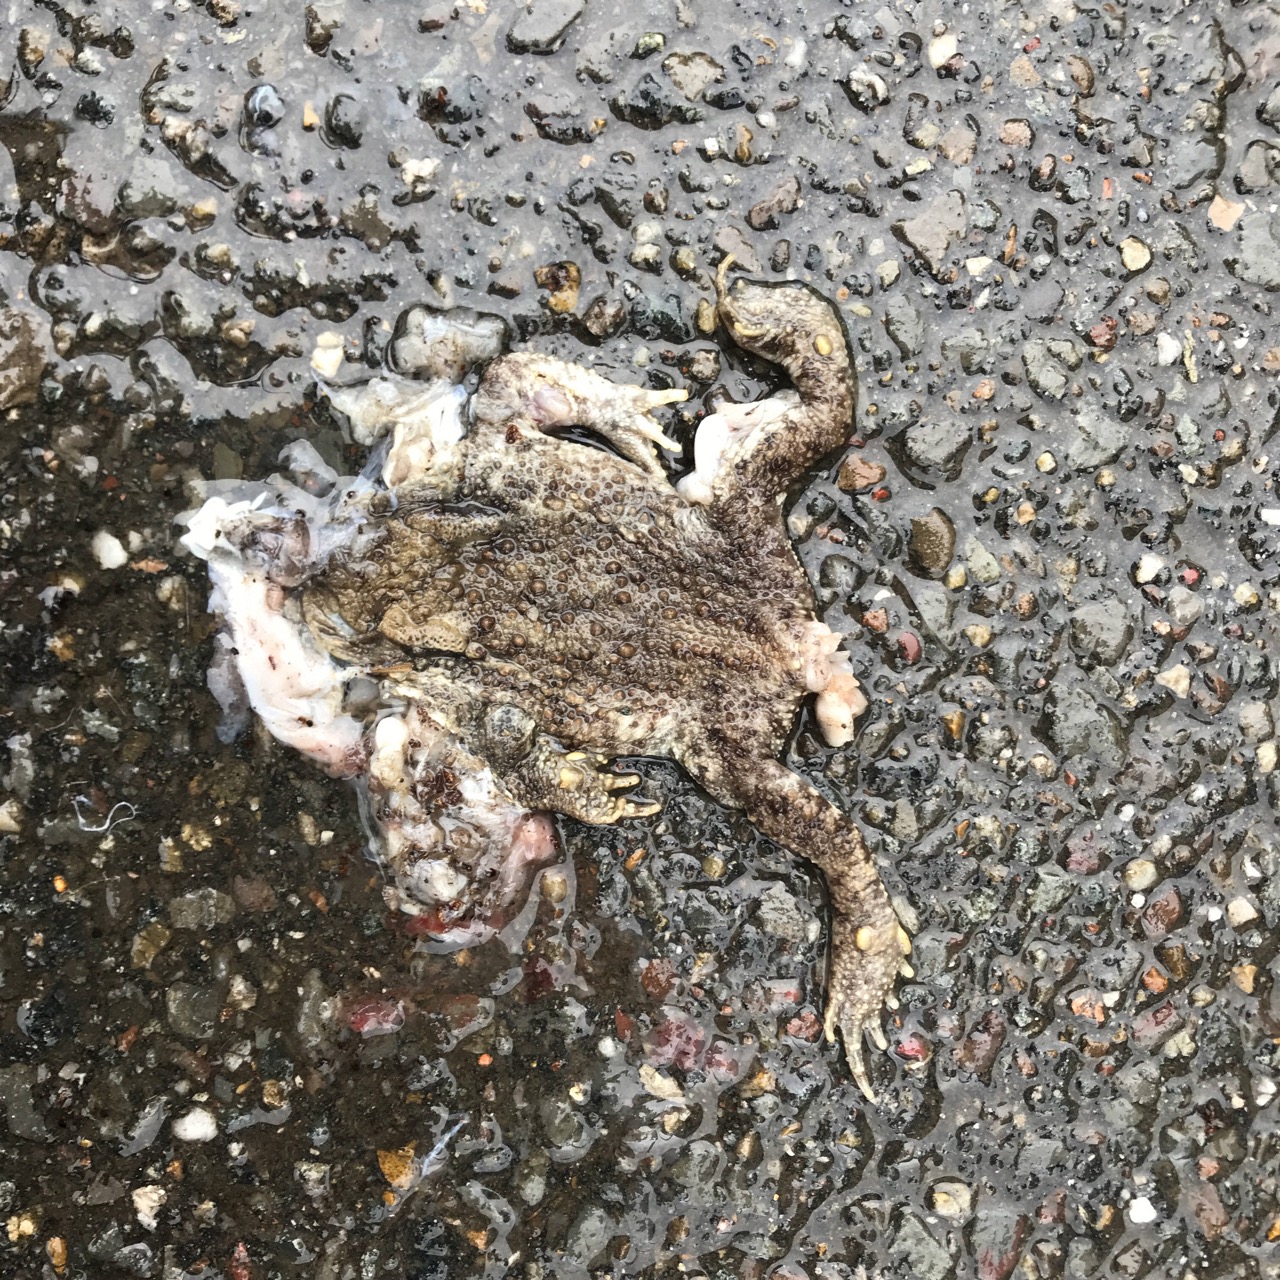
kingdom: Animalia
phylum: Chordata
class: Amphibia
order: Anura
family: Bufonidae
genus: Bufo
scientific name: Bufo bufo
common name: Common toad
